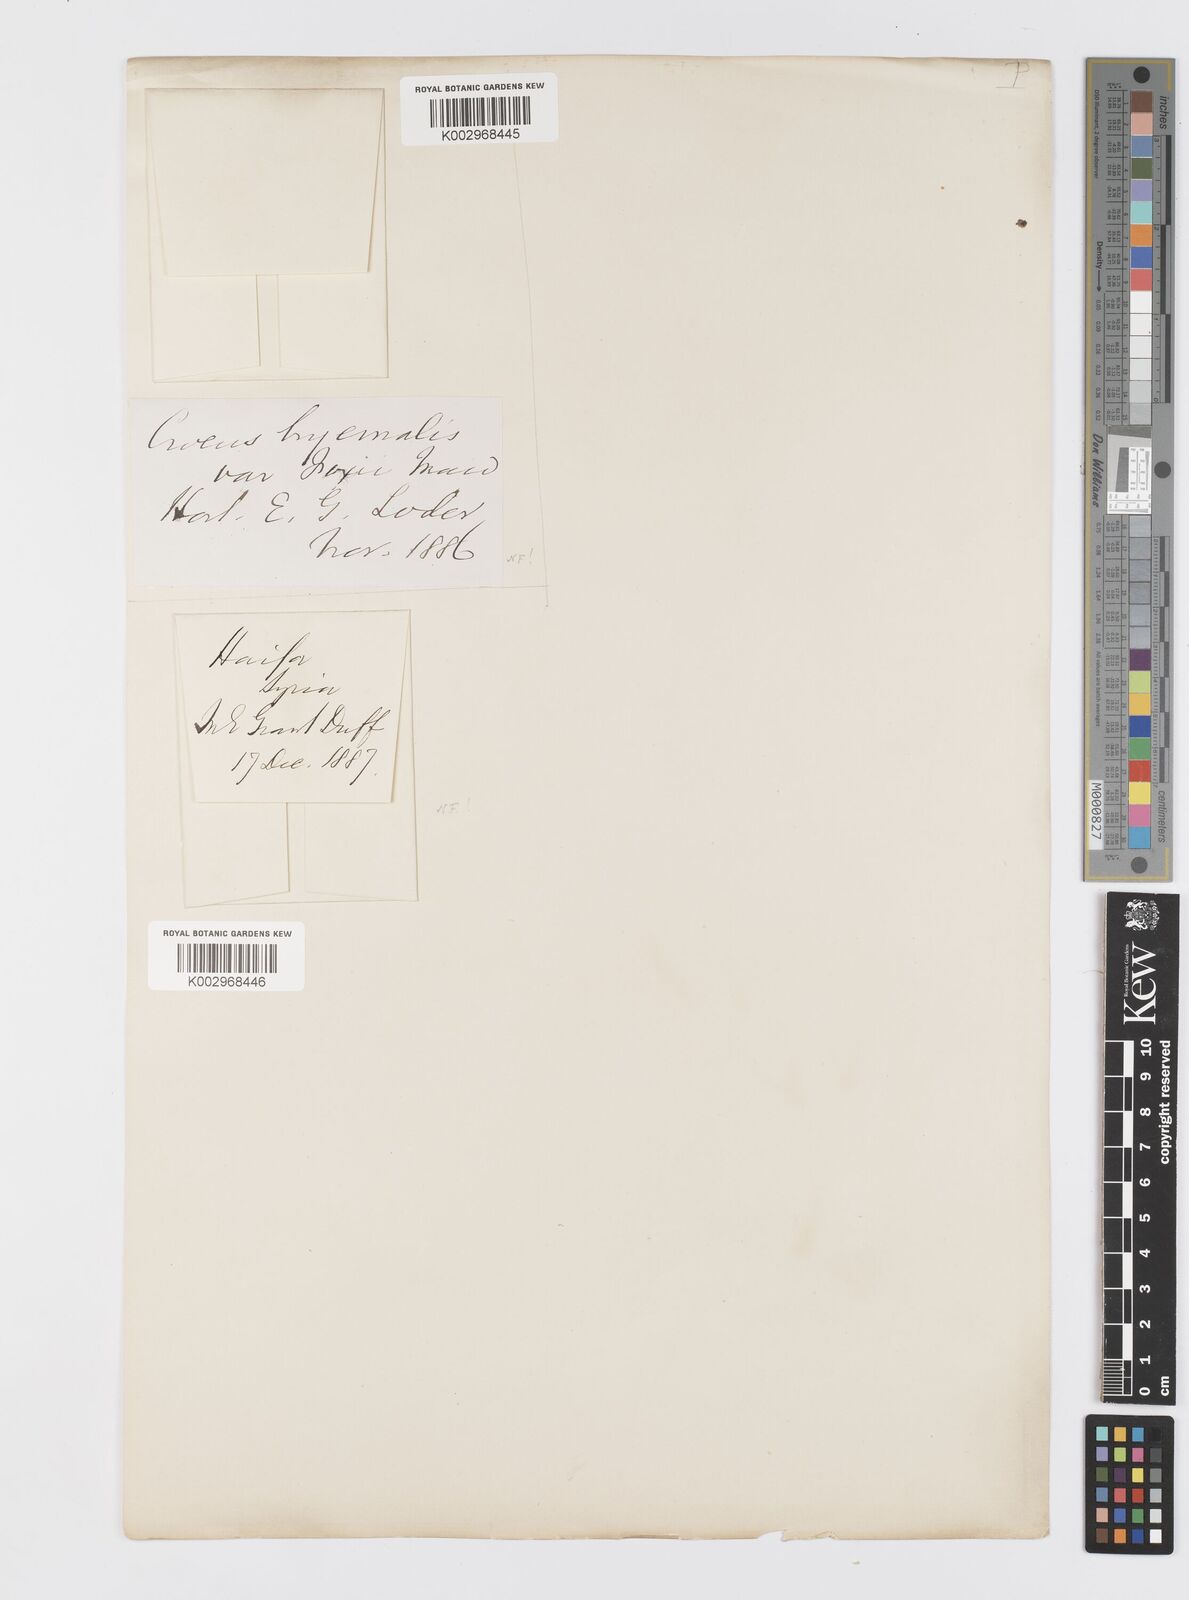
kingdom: Plantae
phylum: Tracheophyta
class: Liliopsida
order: Asparagales
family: Iridaceae
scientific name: Iridaceae
